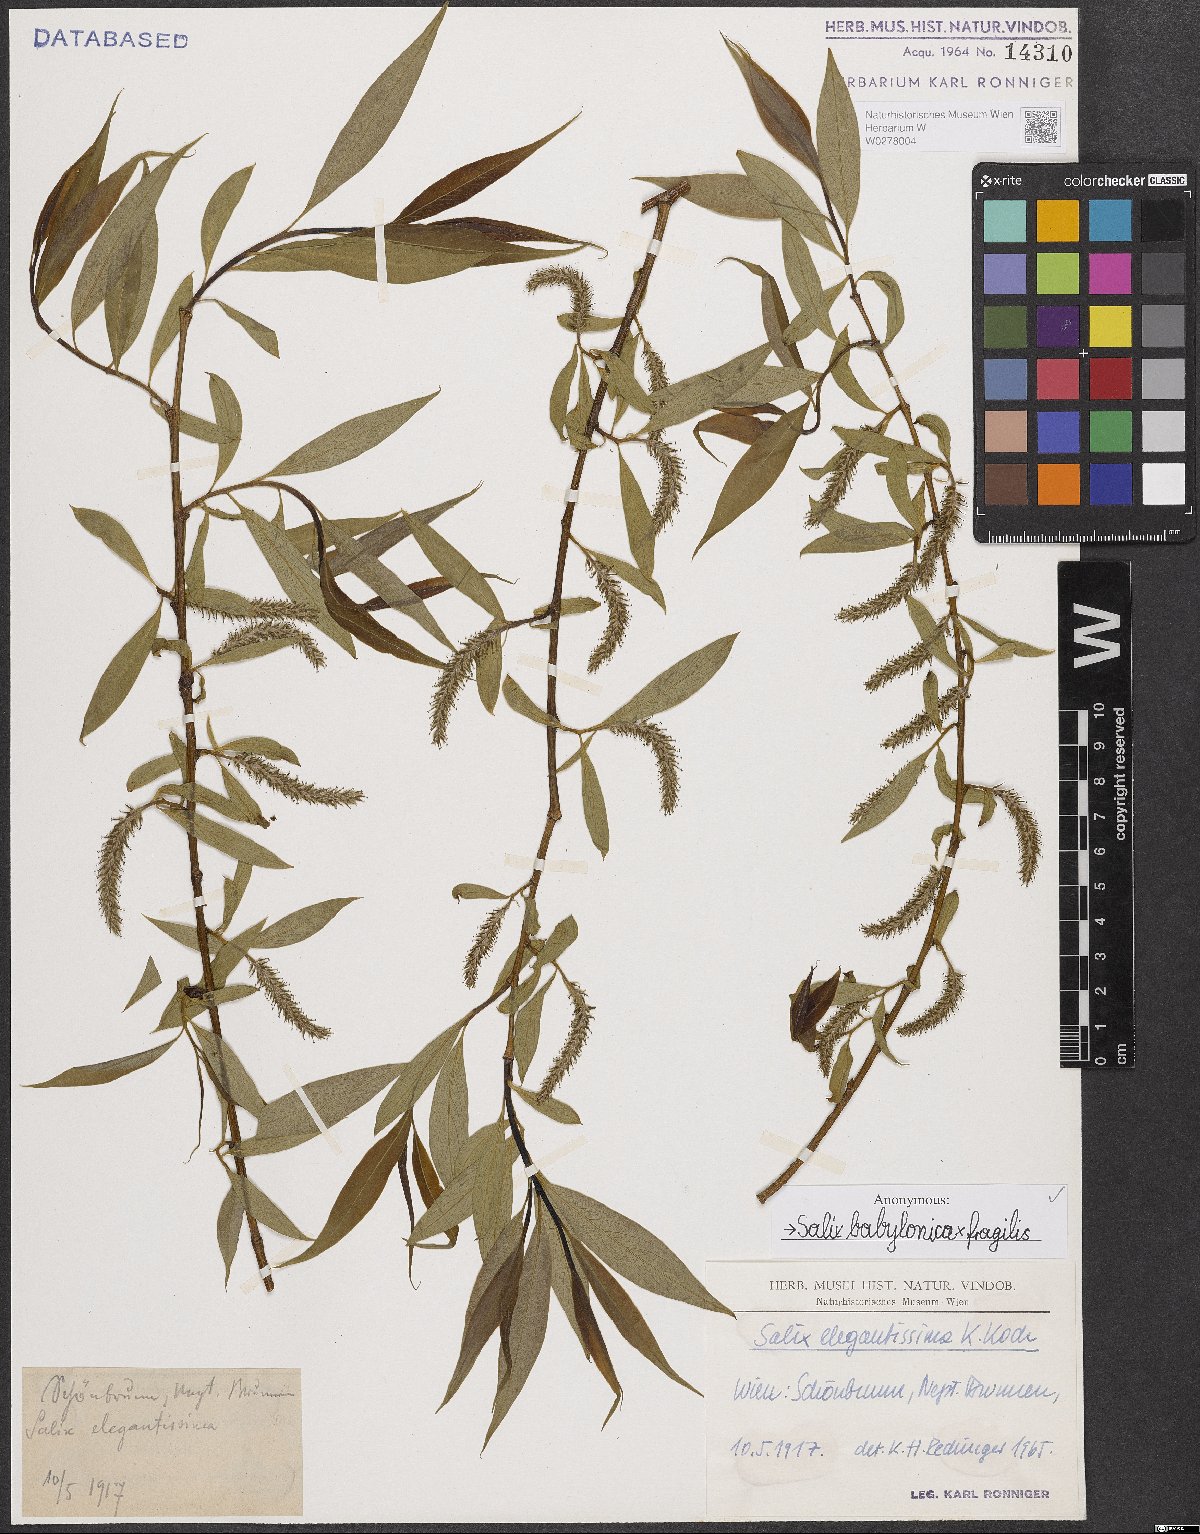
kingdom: Plantae
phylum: Tracheophyta
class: Magnoliopsida
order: Malpighiales
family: Salicaceae
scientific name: Salicaceae
